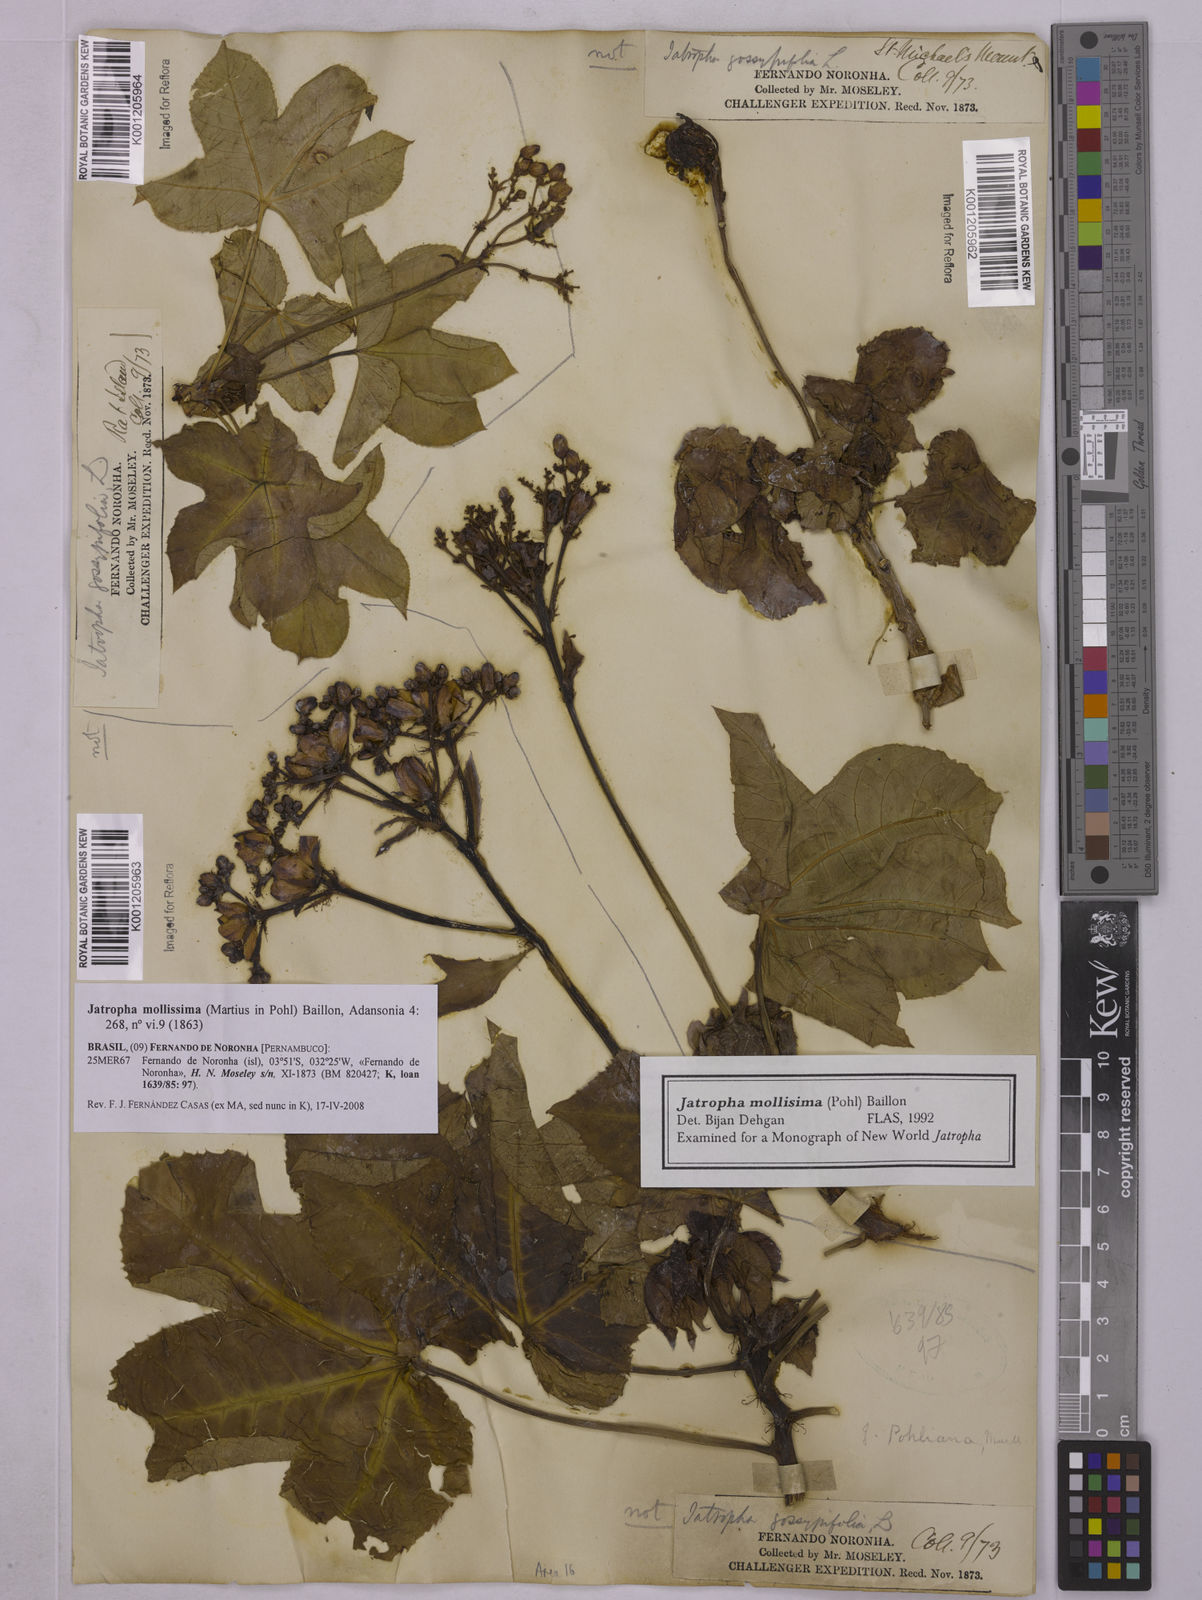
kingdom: Plantae
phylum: Tracheophyta
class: Magnoliopsida
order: Malpighiales
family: Euphorbiaceae
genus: Jatropha
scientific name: Jatropha mollissima
